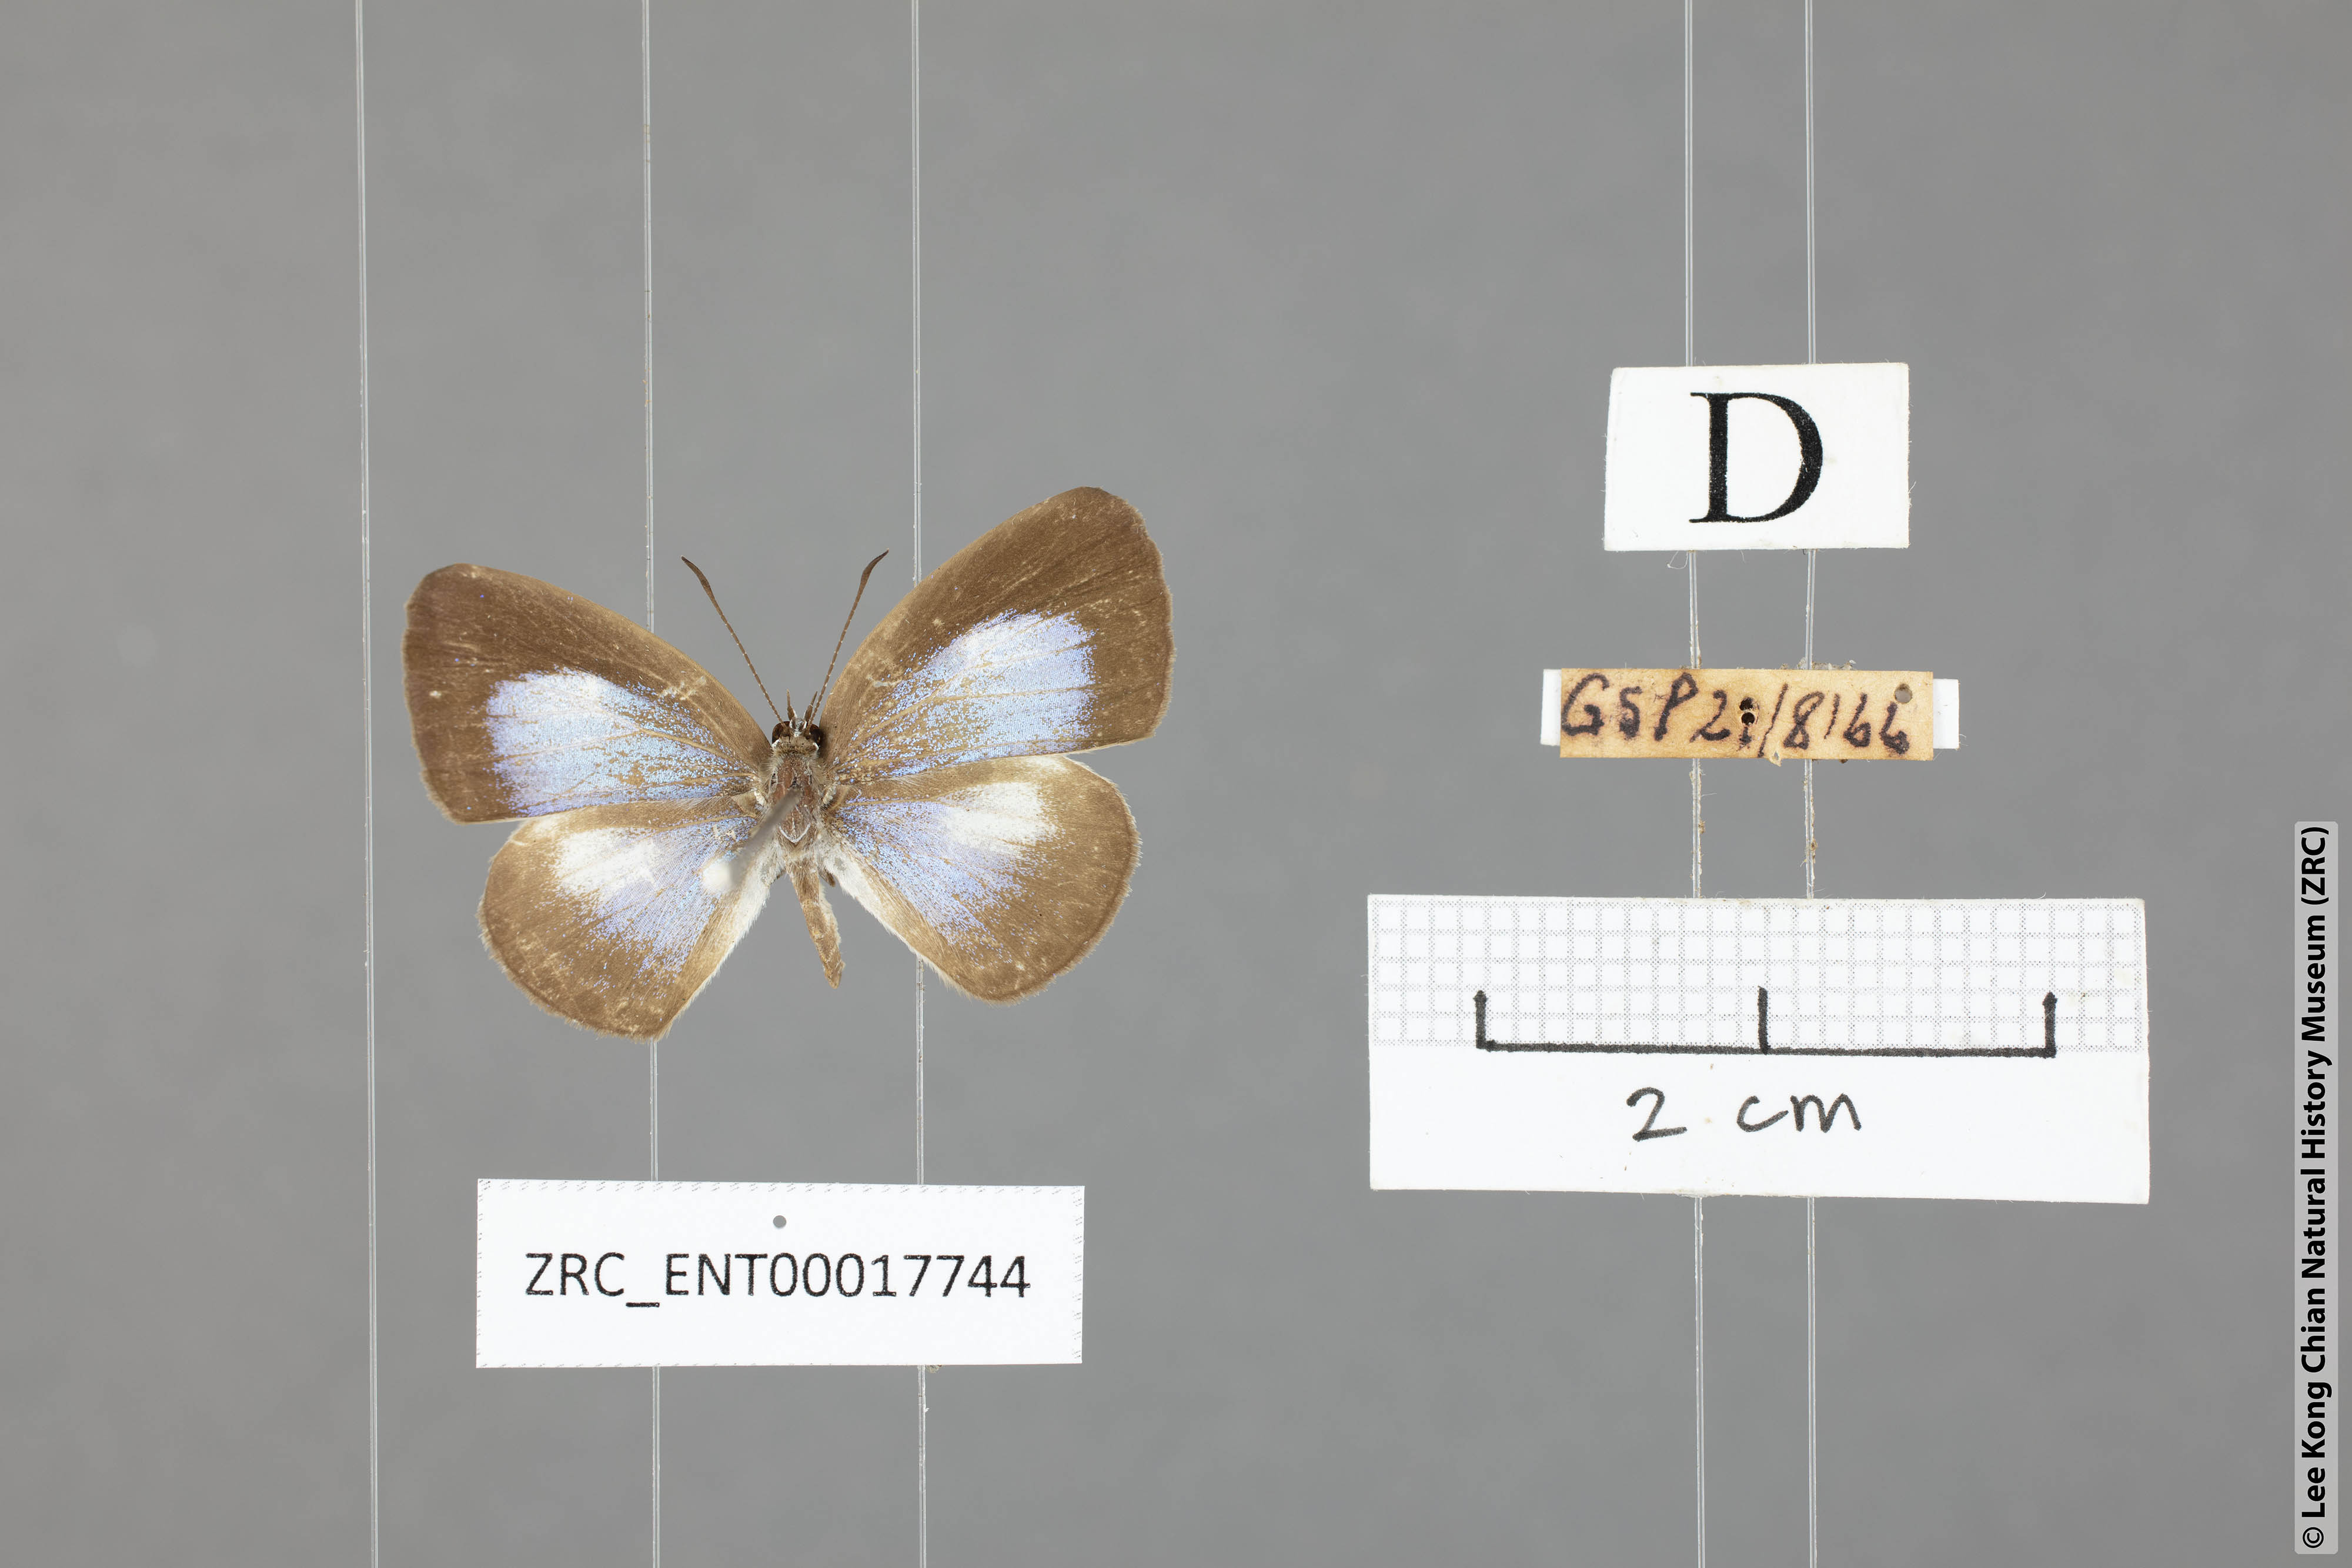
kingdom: Animalia
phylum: Arthropoda
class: Insecta
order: Lepidoptera
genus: Plautella
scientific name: Plautella
